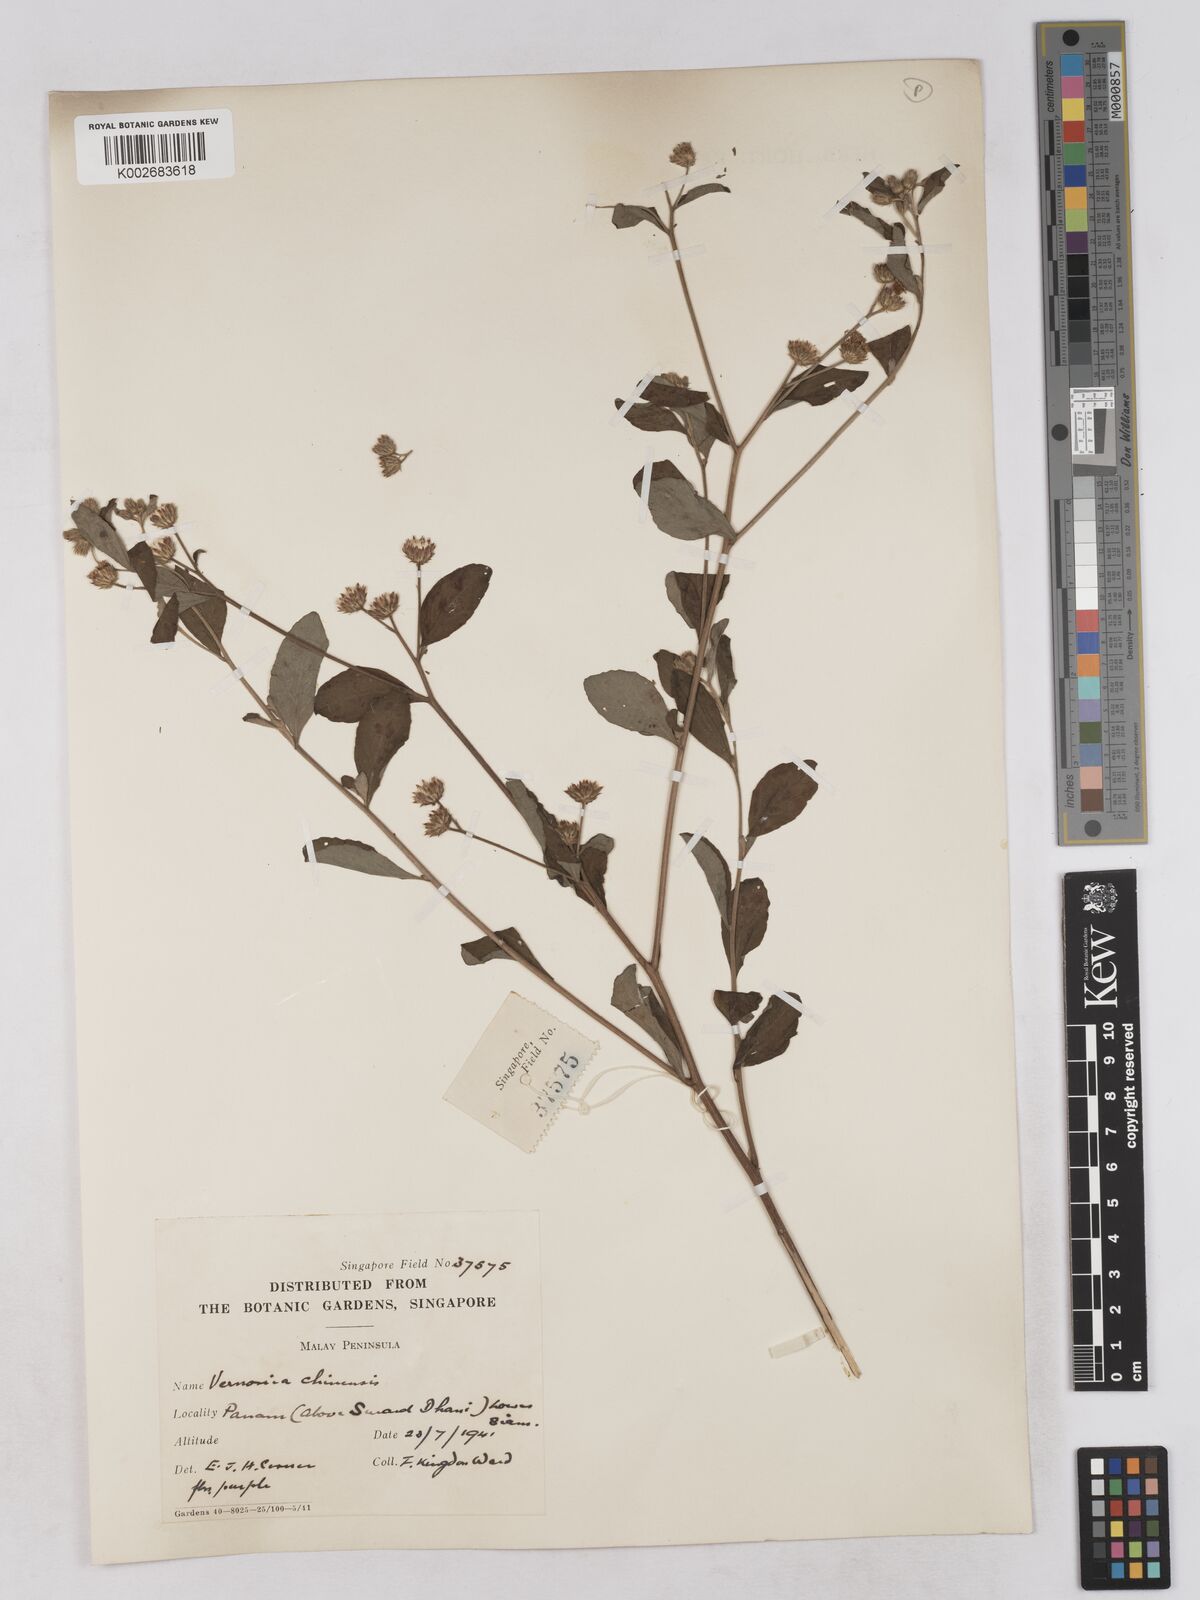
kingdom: Plantae
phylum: Tracheophyta
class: Magnoliopsida
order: Asterales
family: Asteraceae
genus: Cyanthillium
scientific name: Cyanthillium patulum
